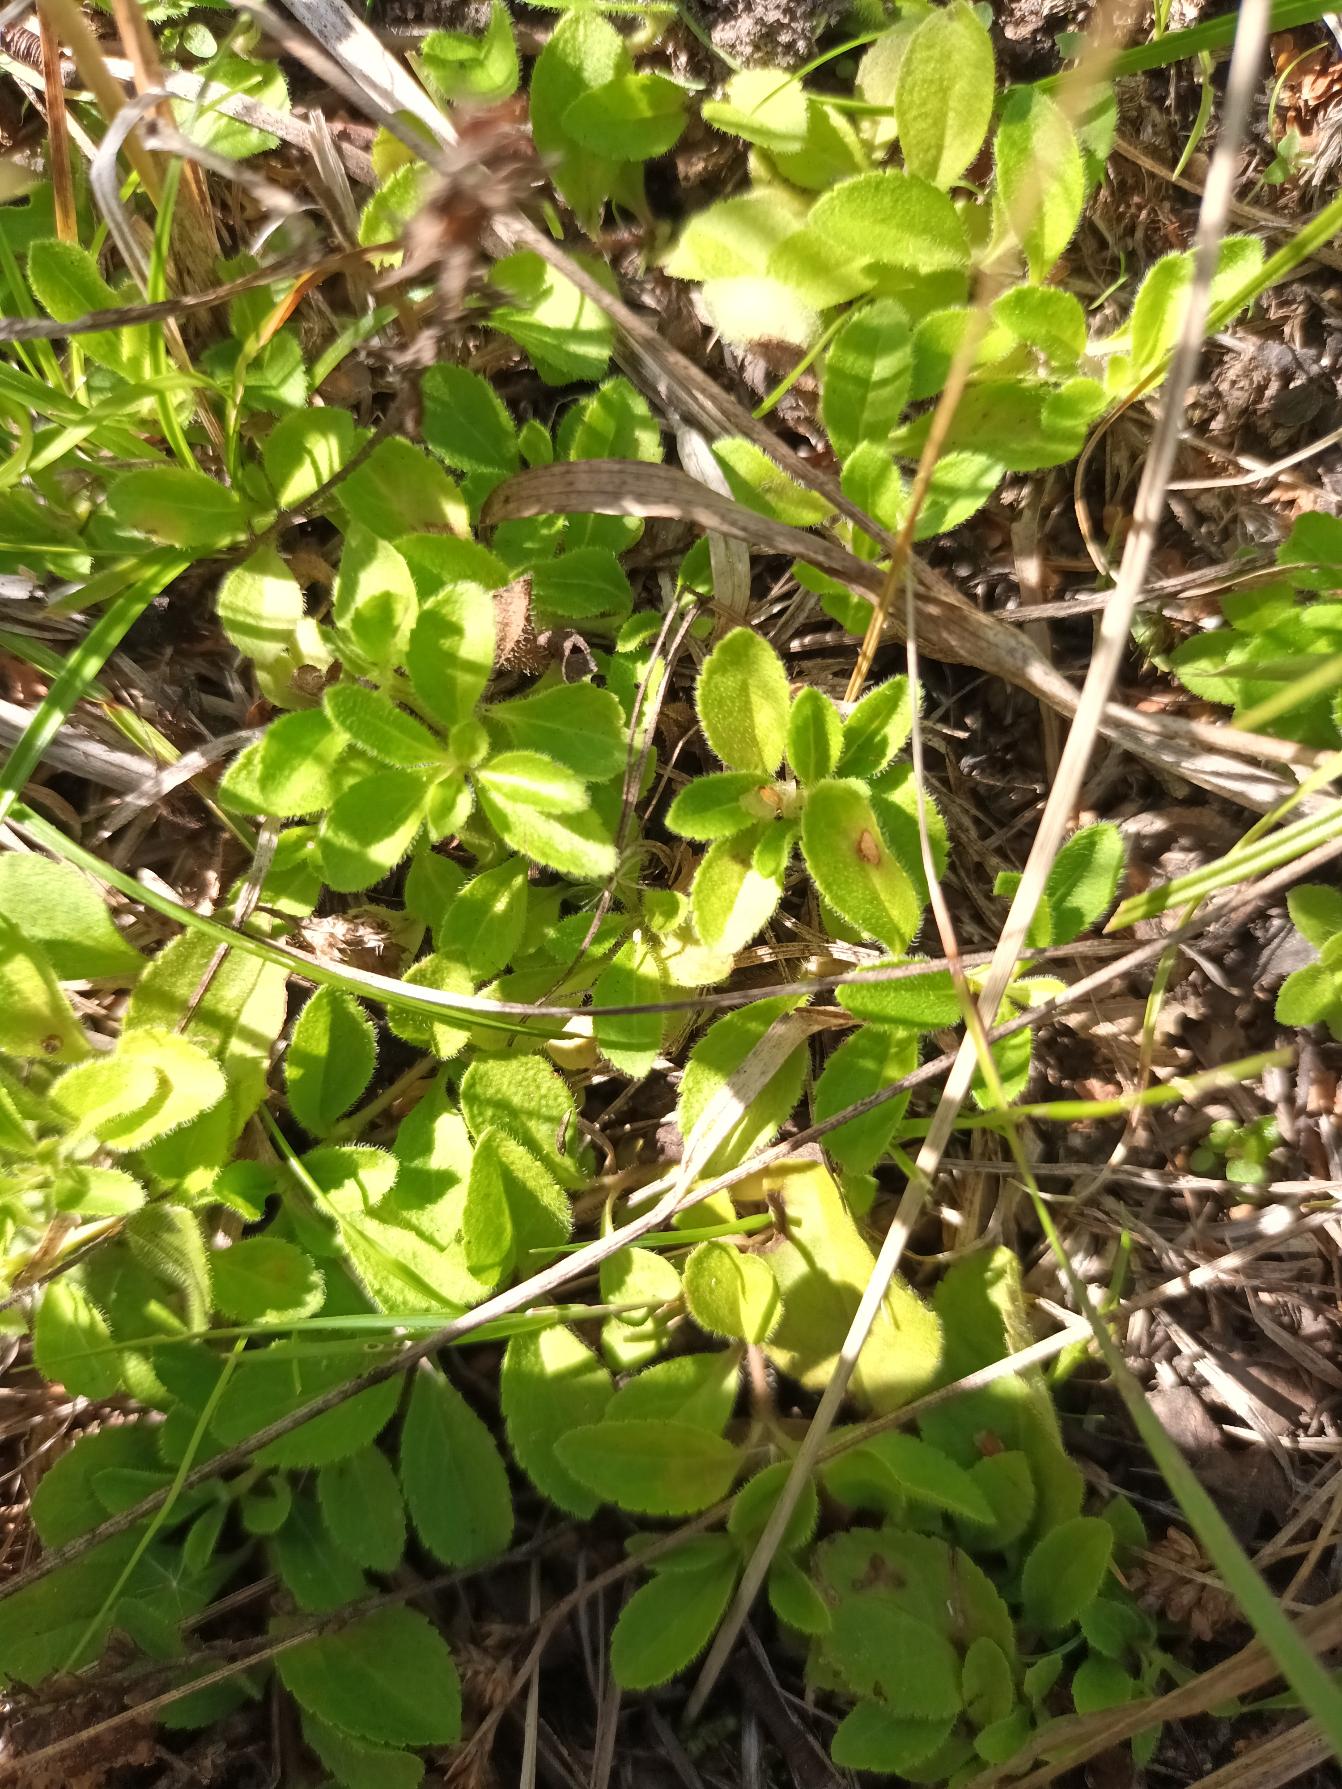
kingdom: Plantae
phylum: Tracheophyta
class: Magnoliopsida
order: Lamiales
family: Plantaginaceae
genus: Veronica
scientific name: Veronica officinalis
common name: Læge-ærenpris
